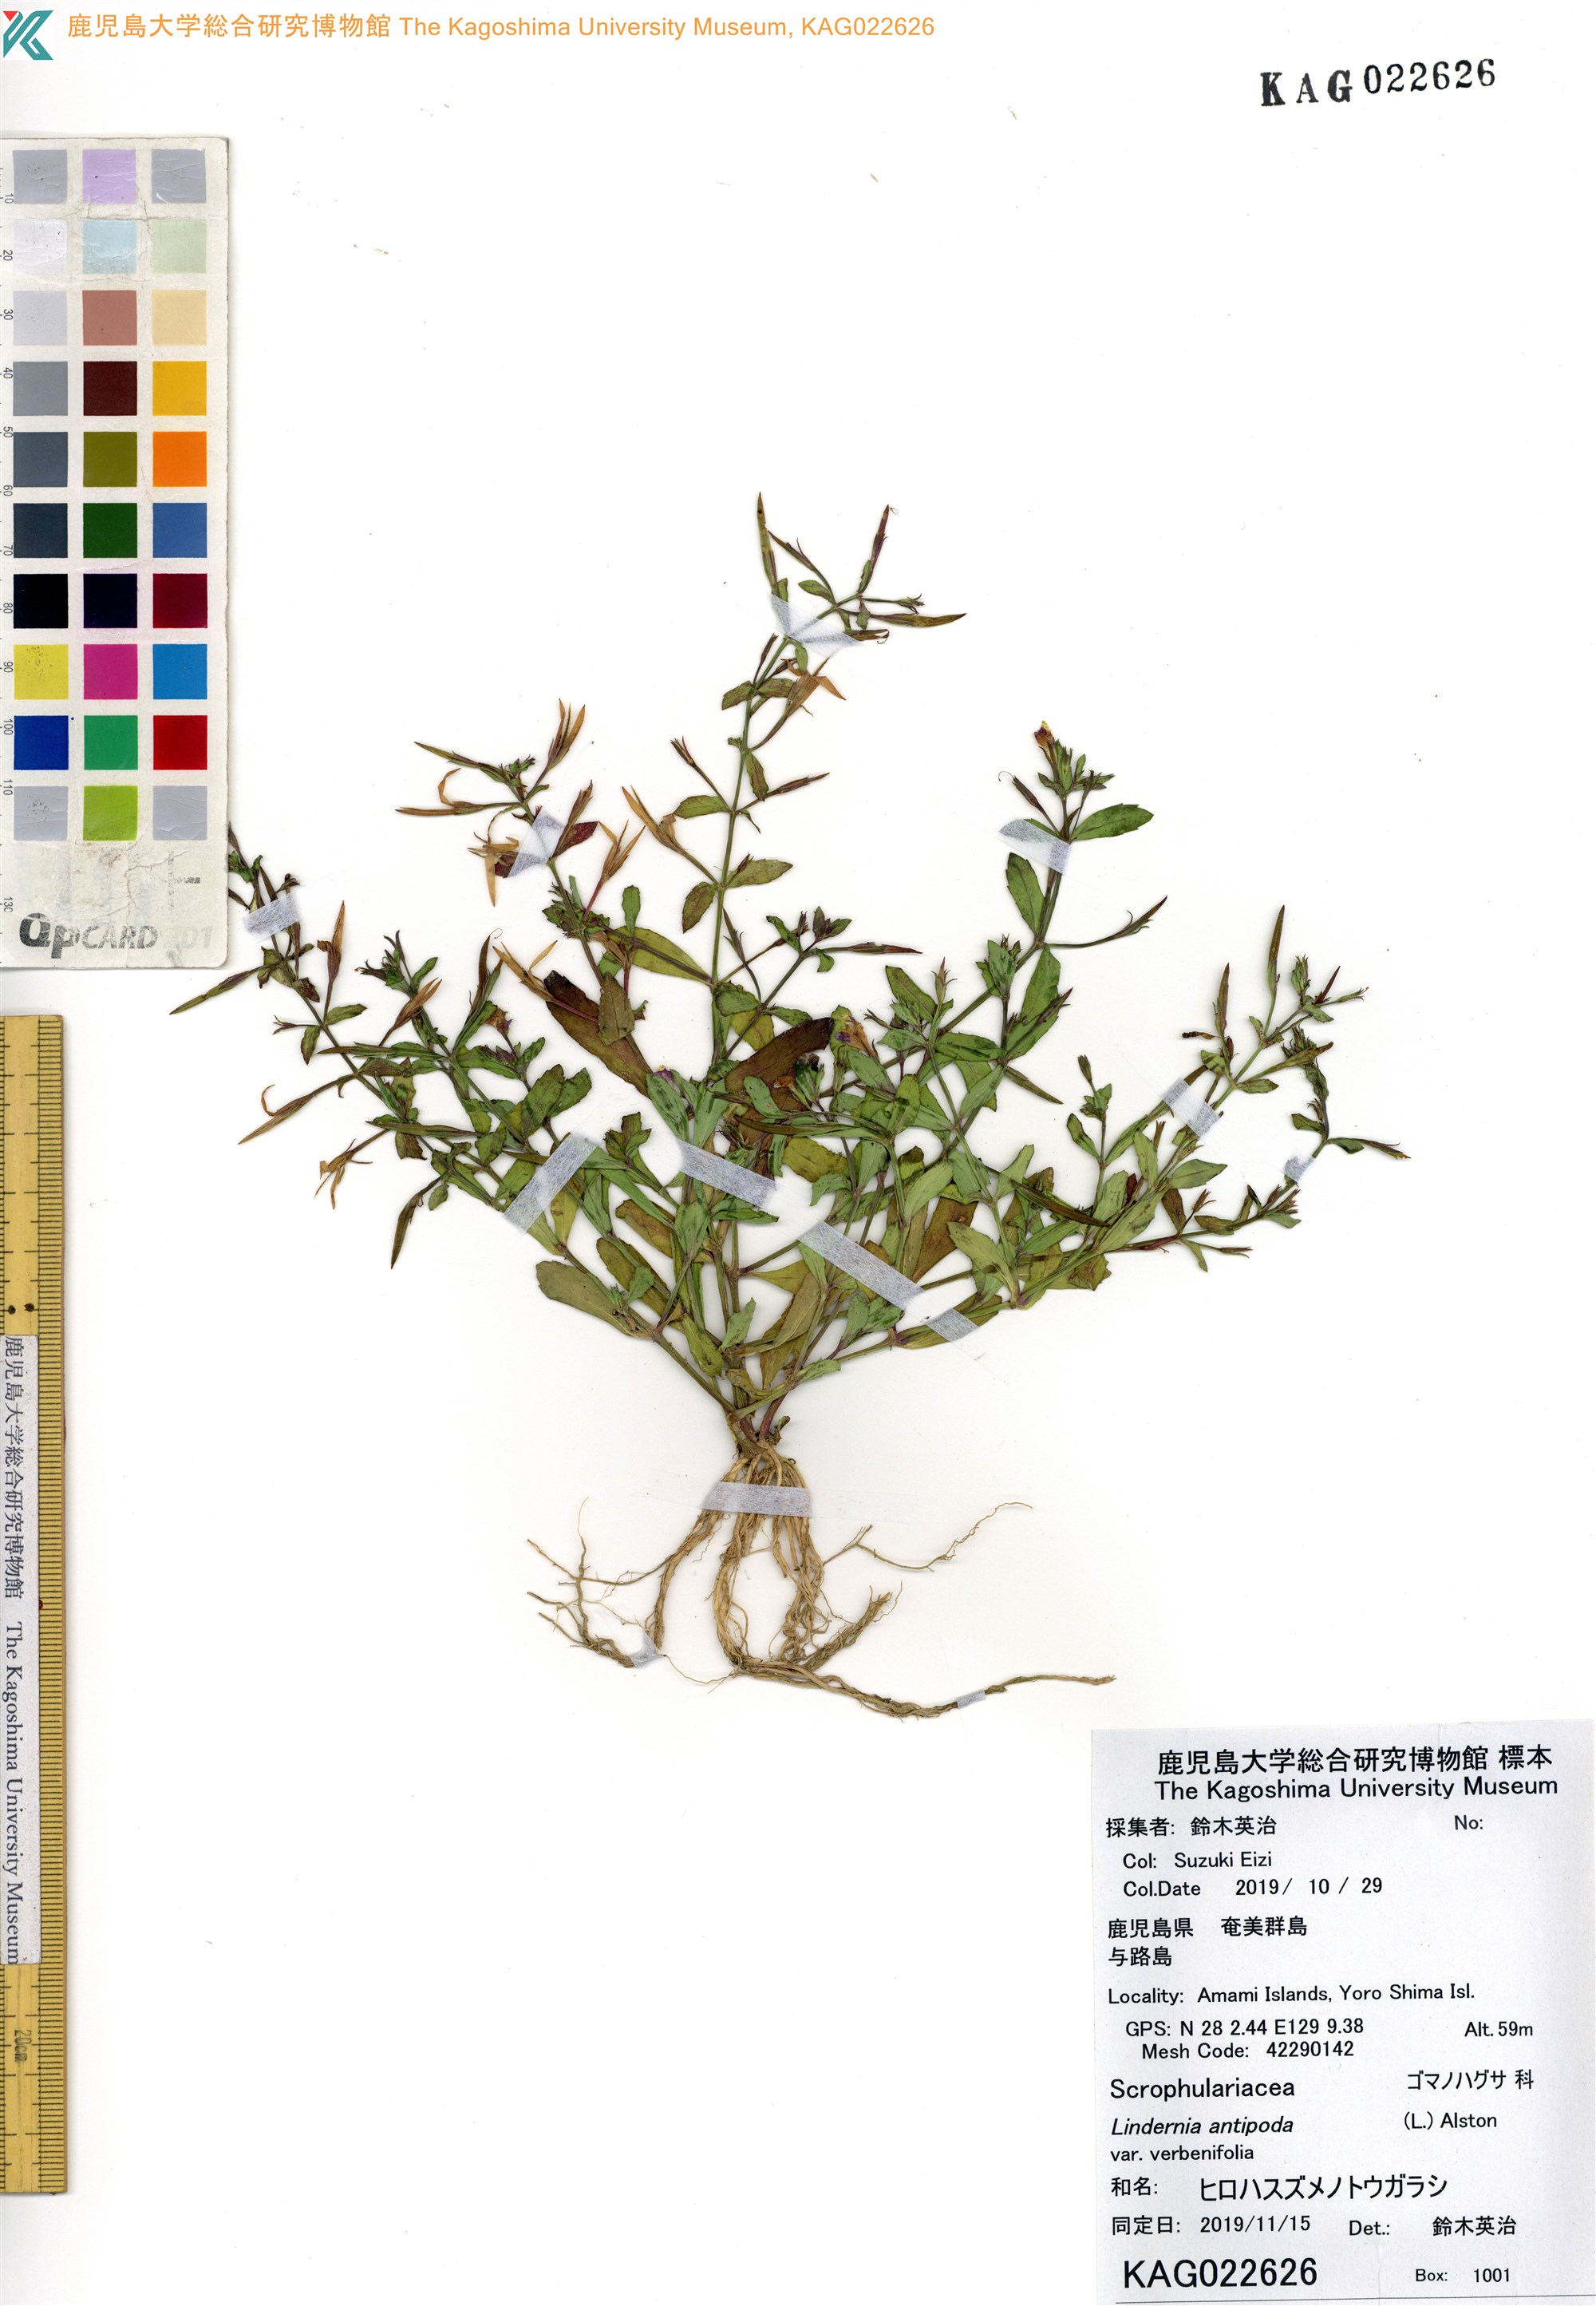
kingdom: Plantae
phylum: Tracheophyta
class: Magnoliopsida
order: Lamiales
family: Linderniaceae
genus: Bonnaya
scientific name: Bonnaya antipoda
